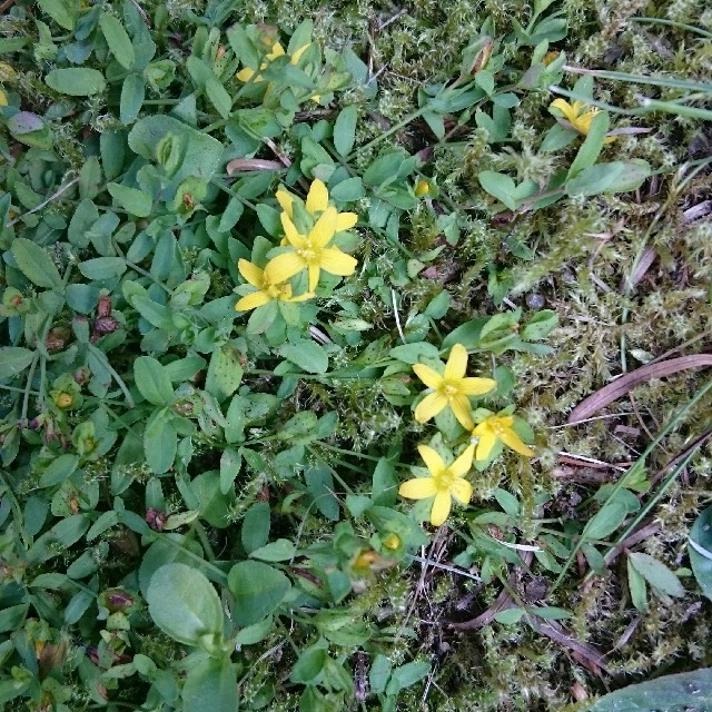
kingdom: Plantae
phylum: Tracheophyta
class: Magnoliopsida
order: Malpighiales
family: Hypericaceae
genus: Hypericum
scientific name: Hypericum humifusum
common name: Dværg-perikon
